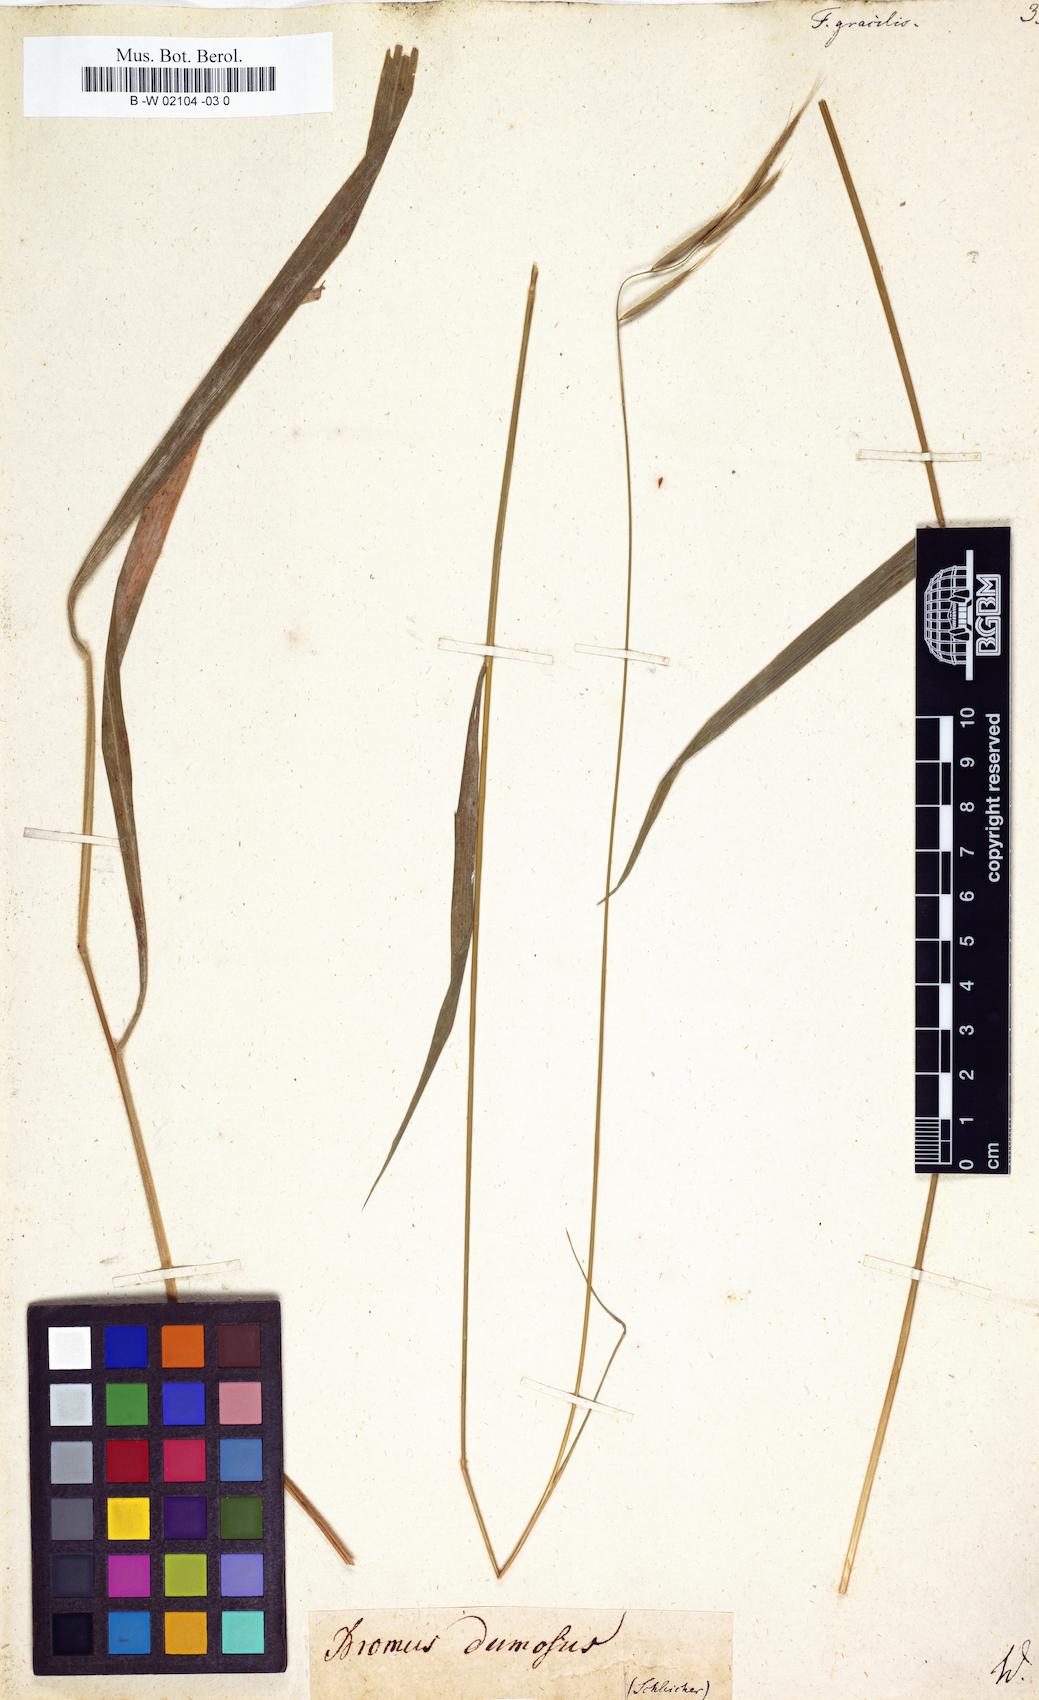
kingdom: Plantae
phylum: Tracheophyta
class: Liliopsida
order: Poales
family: Poaceae
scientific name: Poaceae
